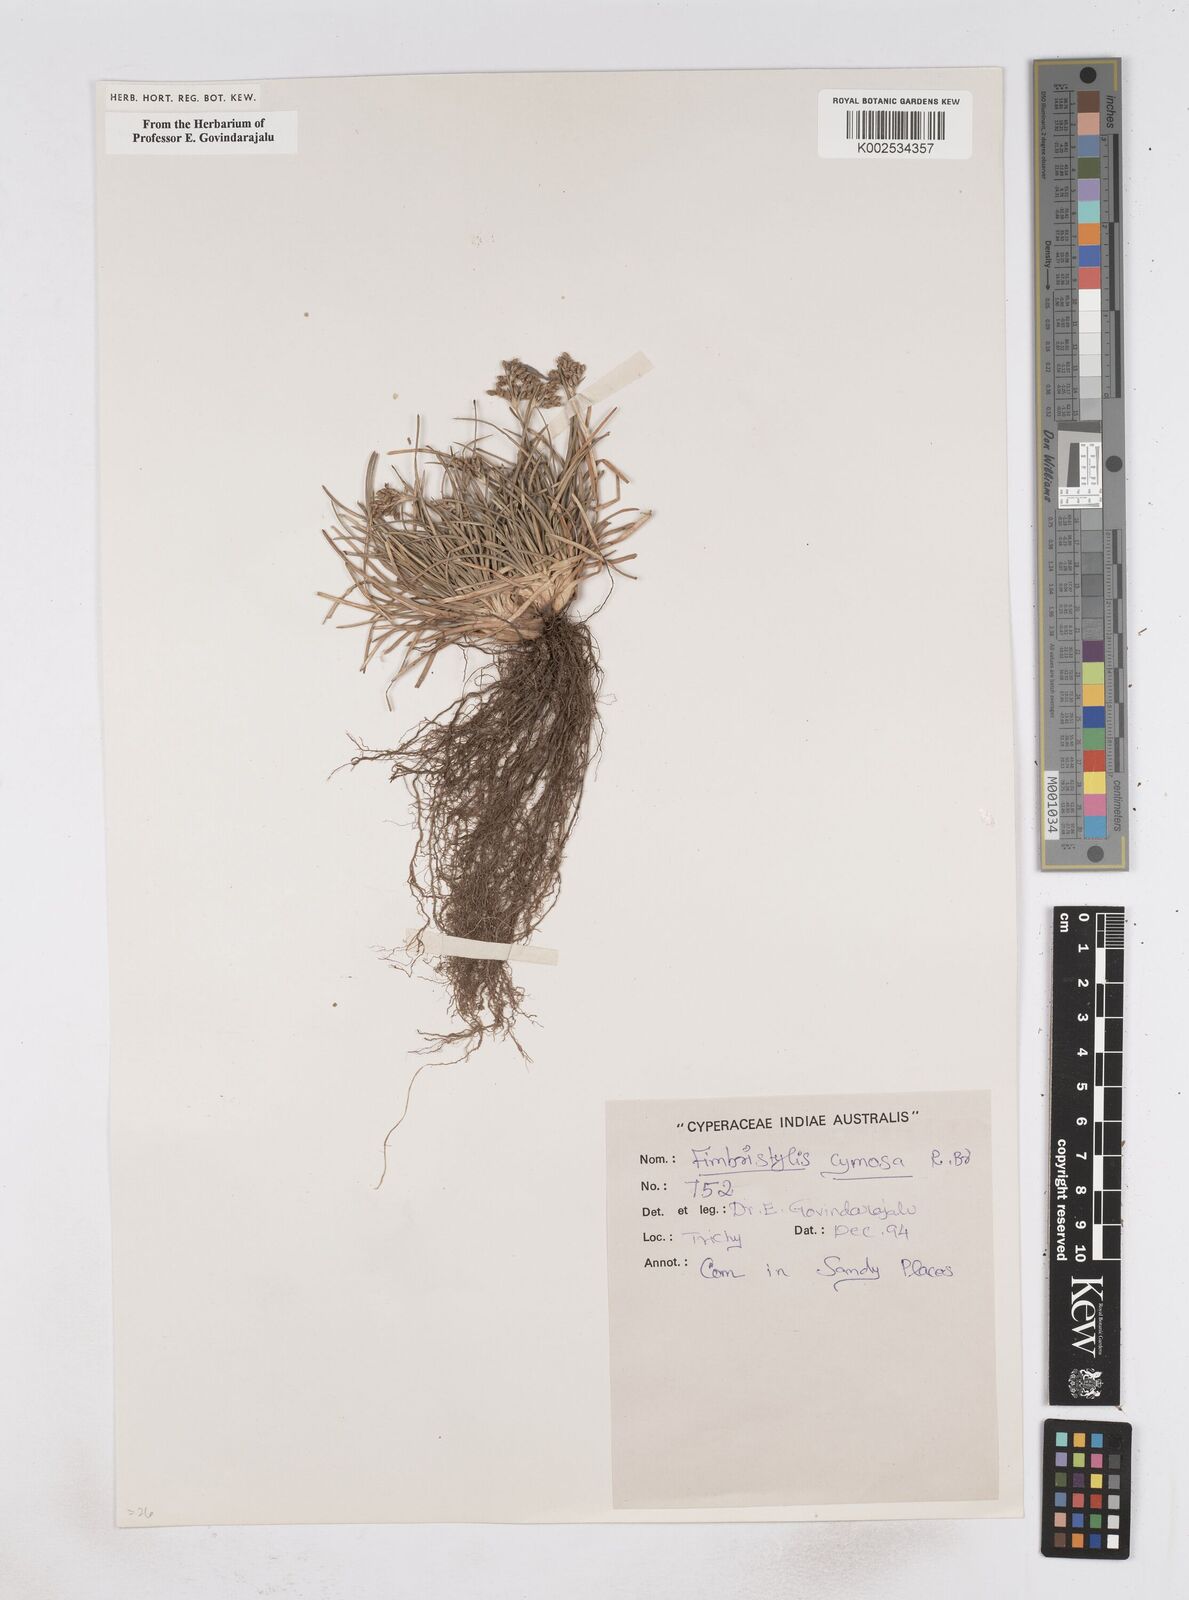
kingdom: Plantae
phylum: Tracheophyta
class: Liliopsida
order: Poales
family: Cyperaceae
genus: Fimbristylis
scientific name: Fimbristylis cymosa
